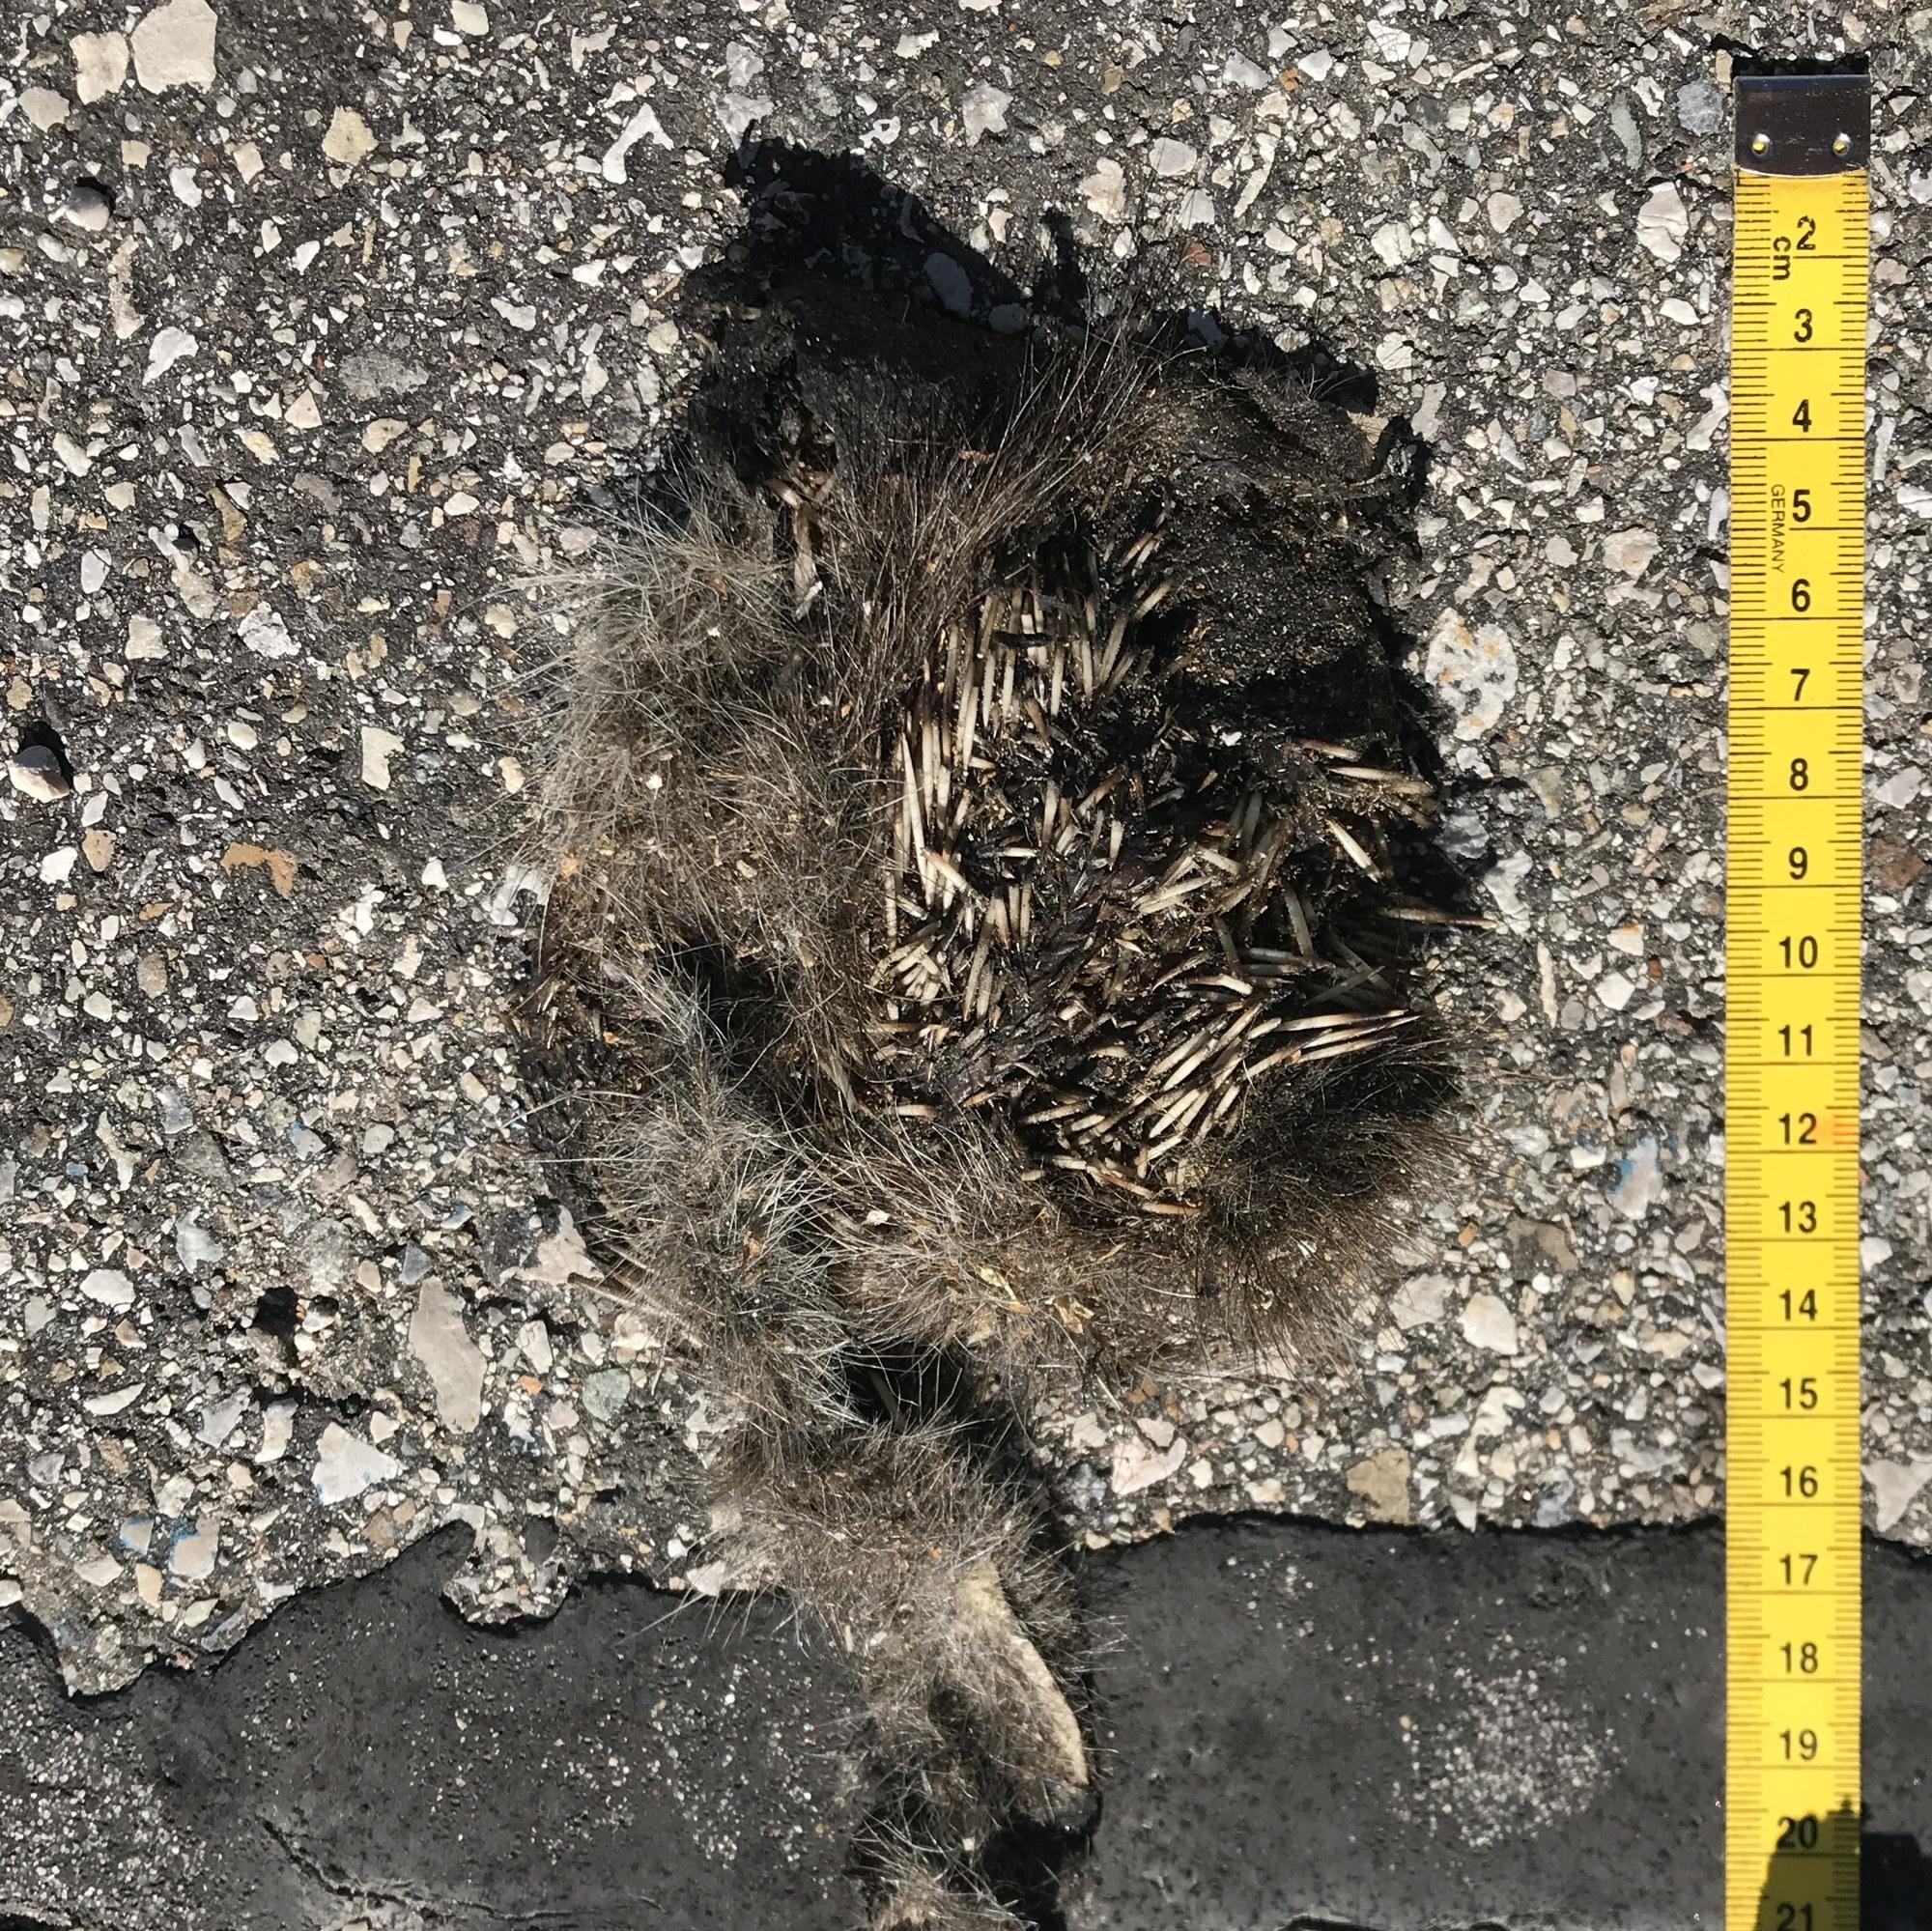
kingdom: Animalia
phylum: Chordata
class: Mammalia
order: Erinaceomorpha
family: Erinaceidae
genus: Erinaceus
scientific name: Erinaceus
